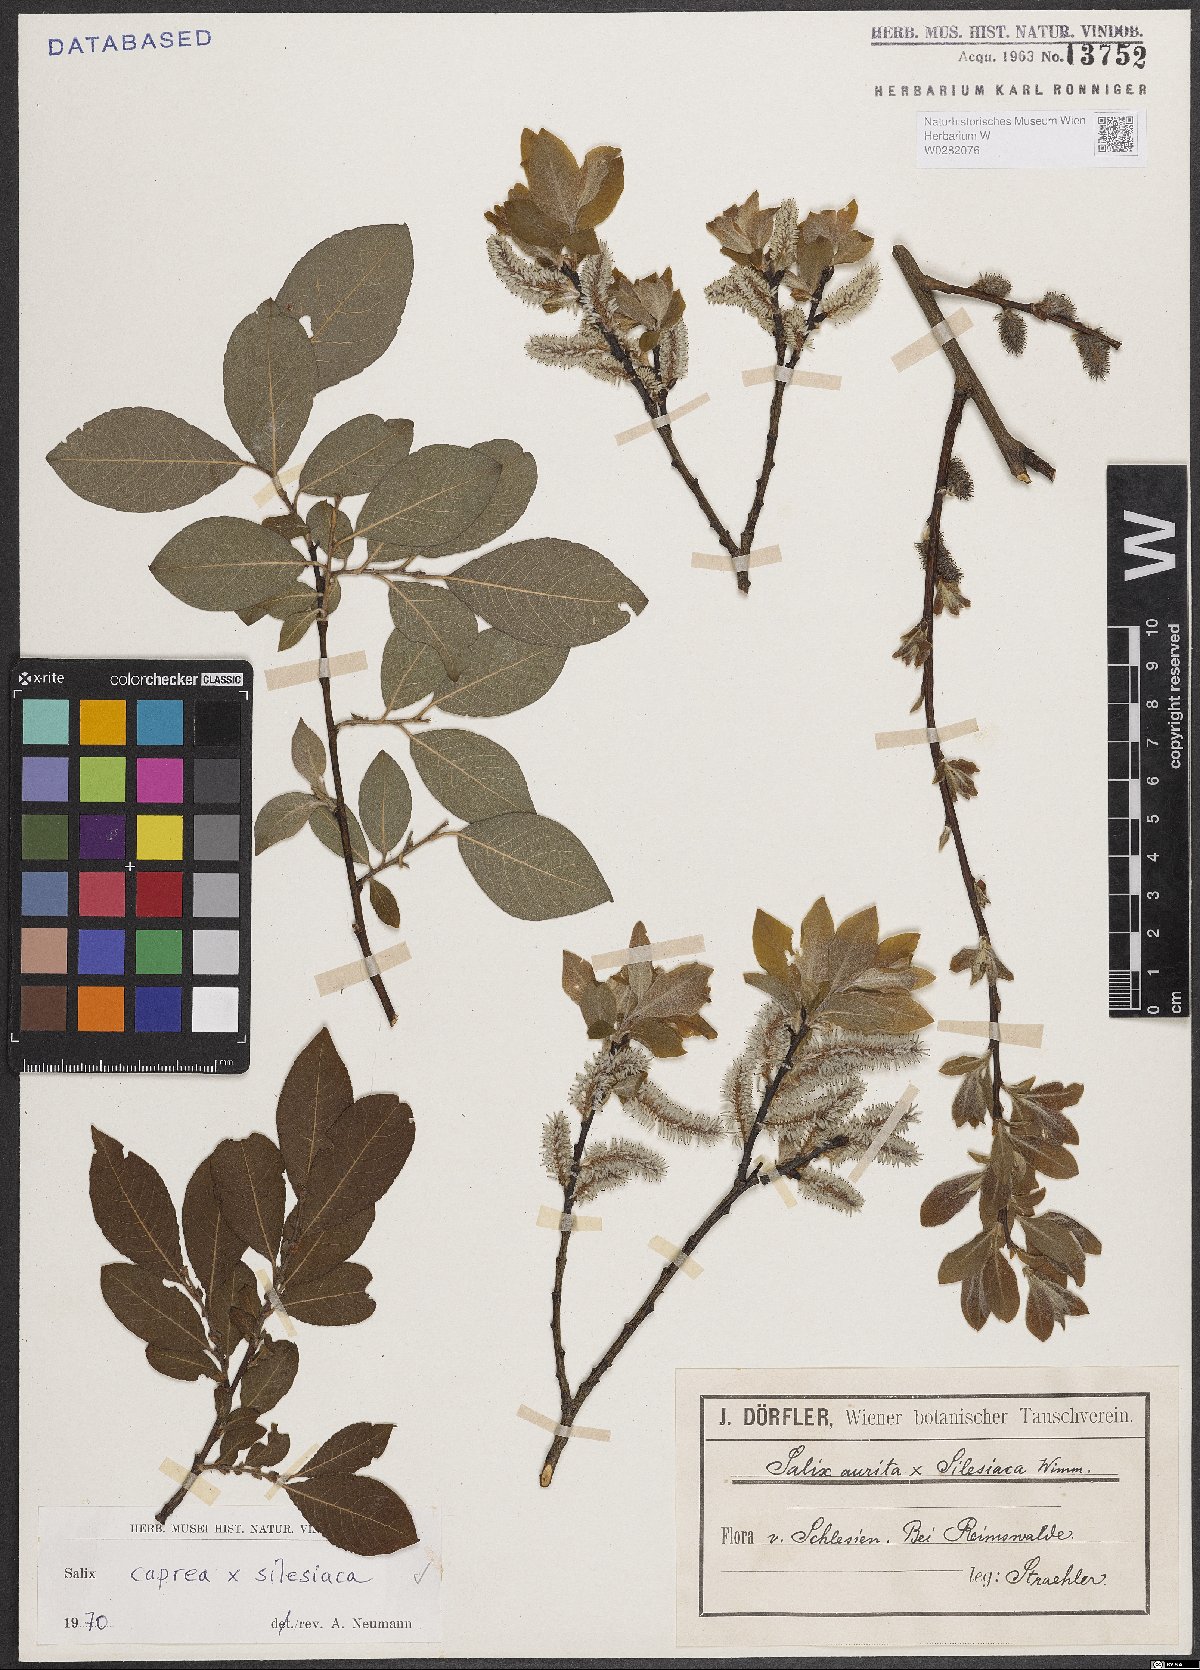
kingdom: Plantae
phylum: Tracheophyta
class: Magnoliopsida
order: Malpighiales
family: Salicaceae
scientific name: Salicaceae
